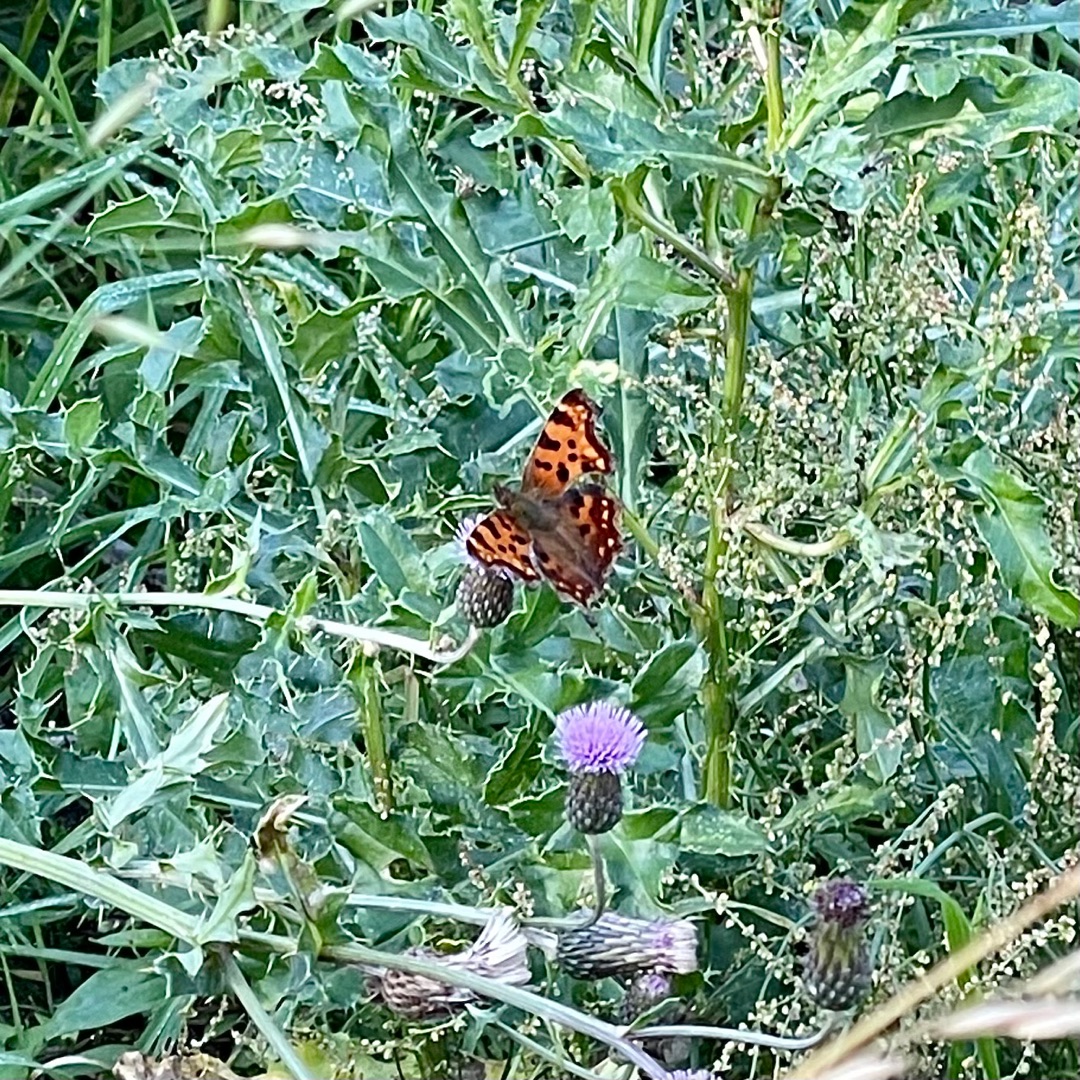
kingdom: Animalia
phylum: Arthropoda
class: Insecta
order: Lepidoptera
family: Nymphalidae
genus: Polygonia
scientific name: Polygonia c-album
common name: Det hvide C
